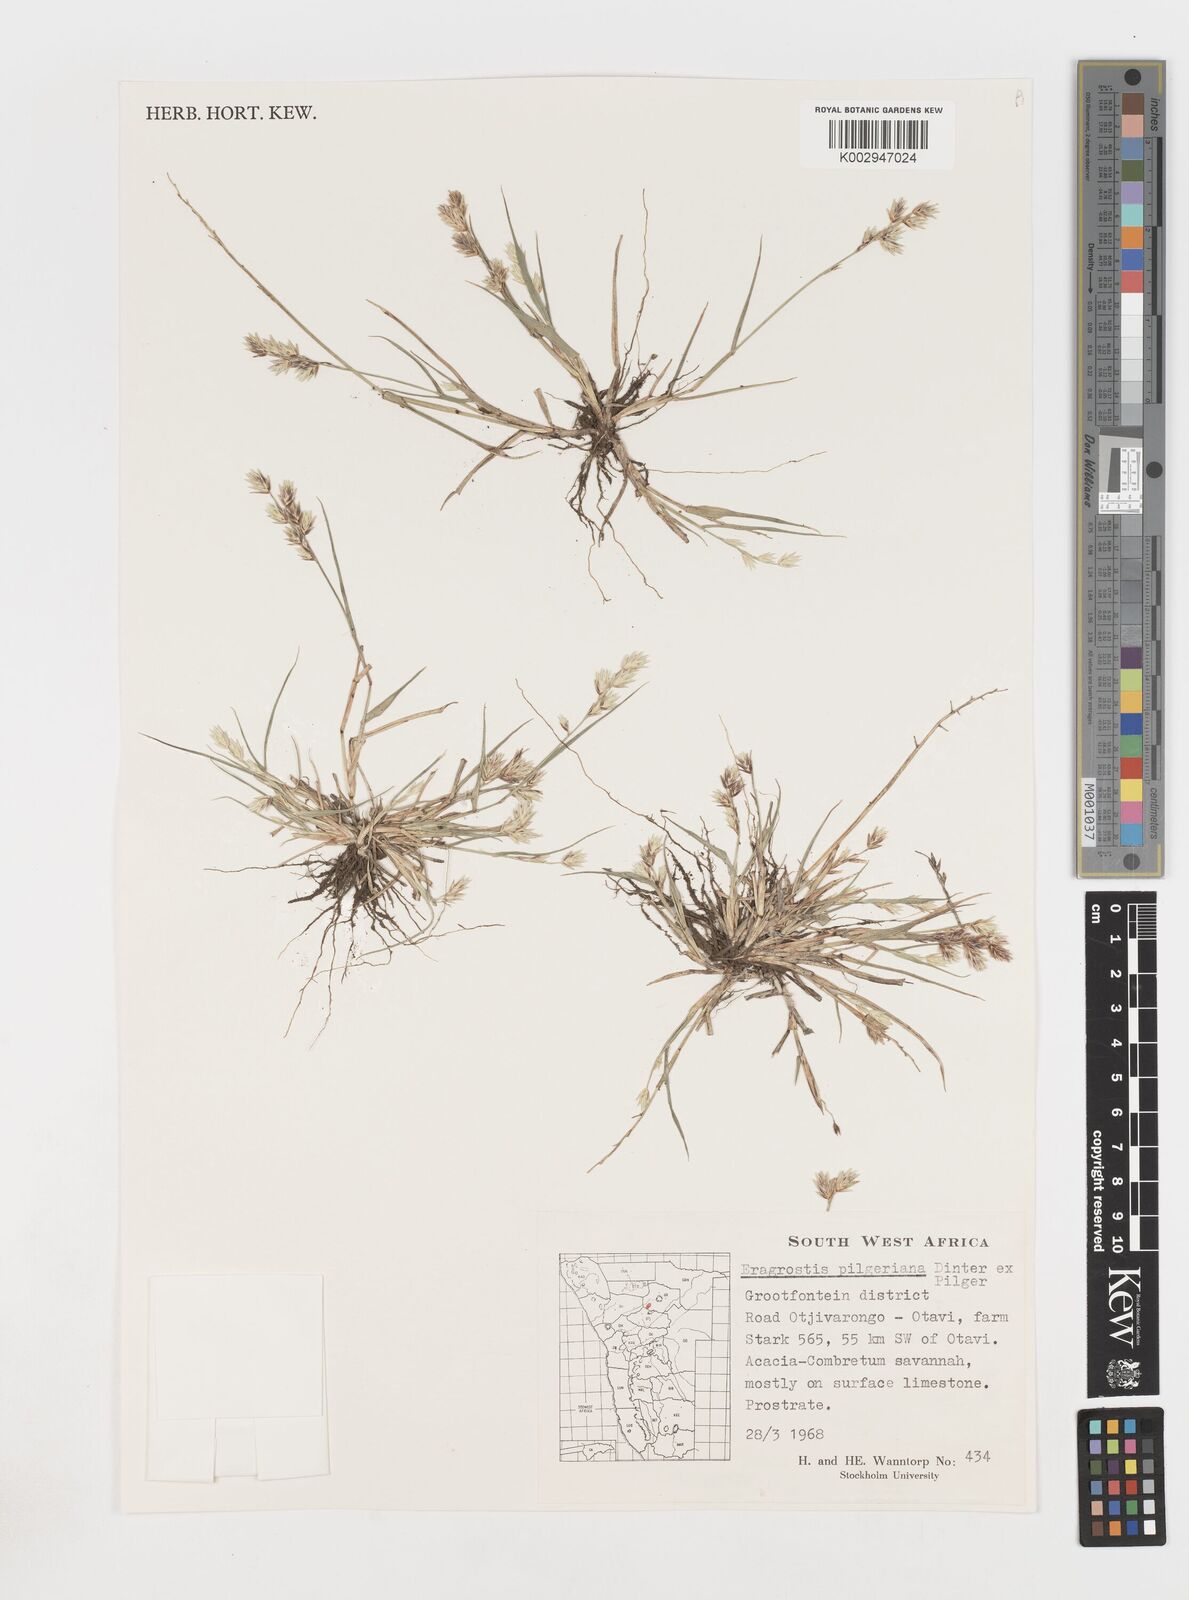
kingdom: Plantae
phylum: Tracheophyta
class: Liliopsida
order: Poales
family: Poaceae
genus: Eragrostis
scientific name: Eragrostis pilgeriana
